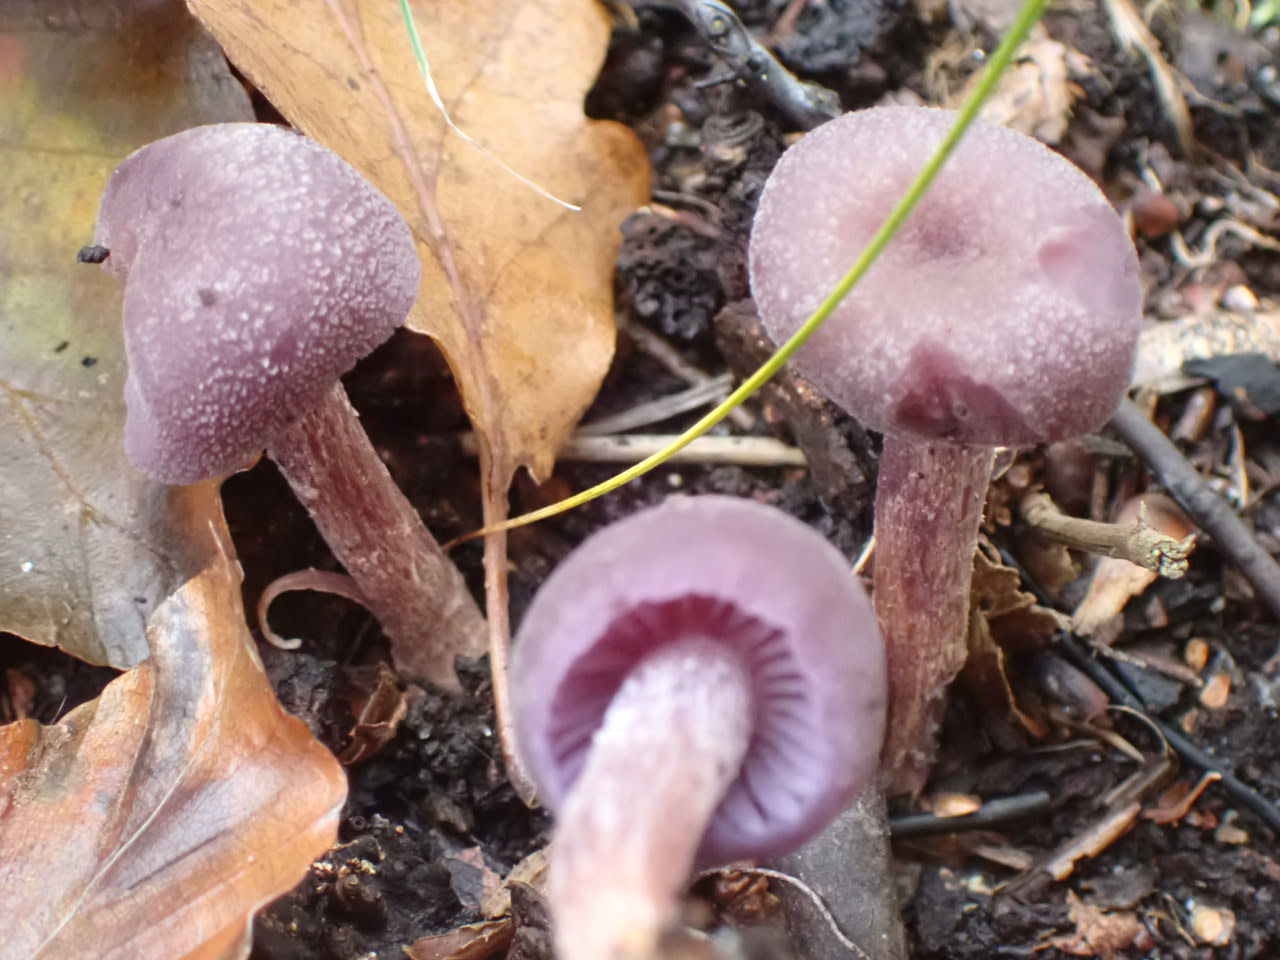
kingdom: Fungi
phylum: Basidiomycota
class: Agaricomycetes
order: Agaricales
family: Hydnangiaceae
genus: Laccaria
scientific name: Laccaria amethystina
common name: violet ametysthat
